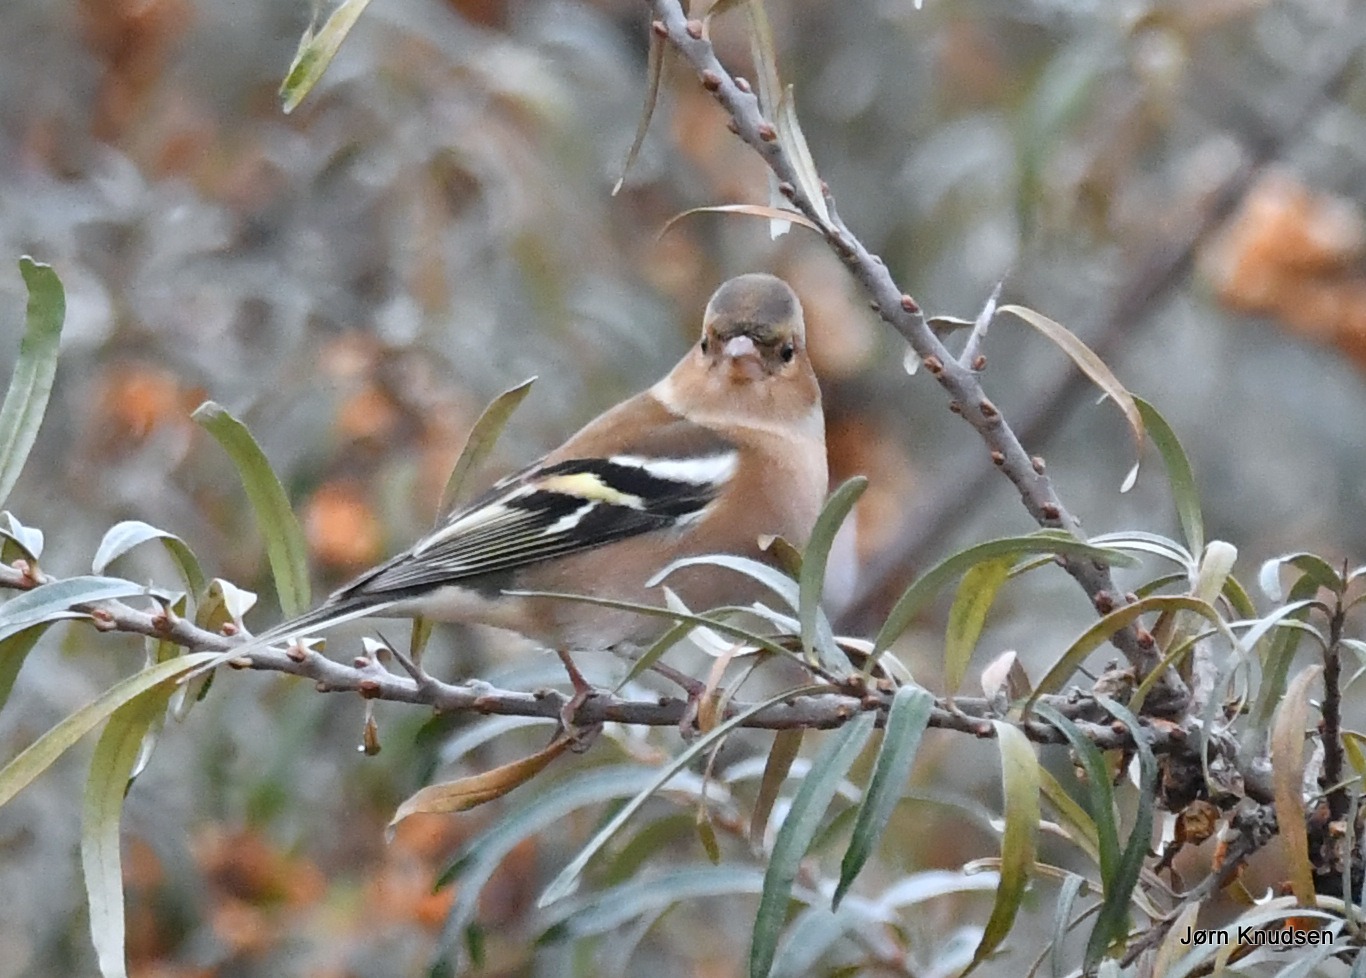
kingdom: Animalia
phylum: Chordata
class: Aves
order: Passeriformes
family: Fringillidae
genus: Fringilla
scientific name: Fringilla coelebs
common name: Bogfinke
